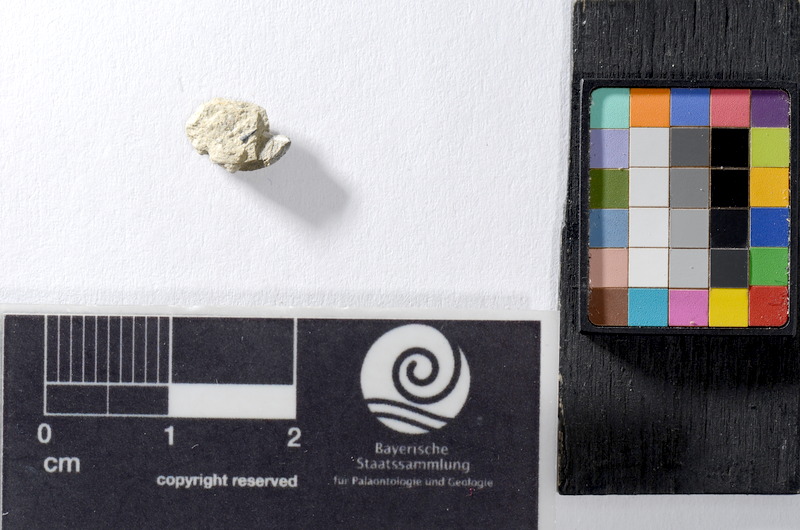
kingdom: Animalia
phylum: Chordata
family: Saurichthyidae
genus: Saurichthys
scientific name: Saurichthys acuminatus
